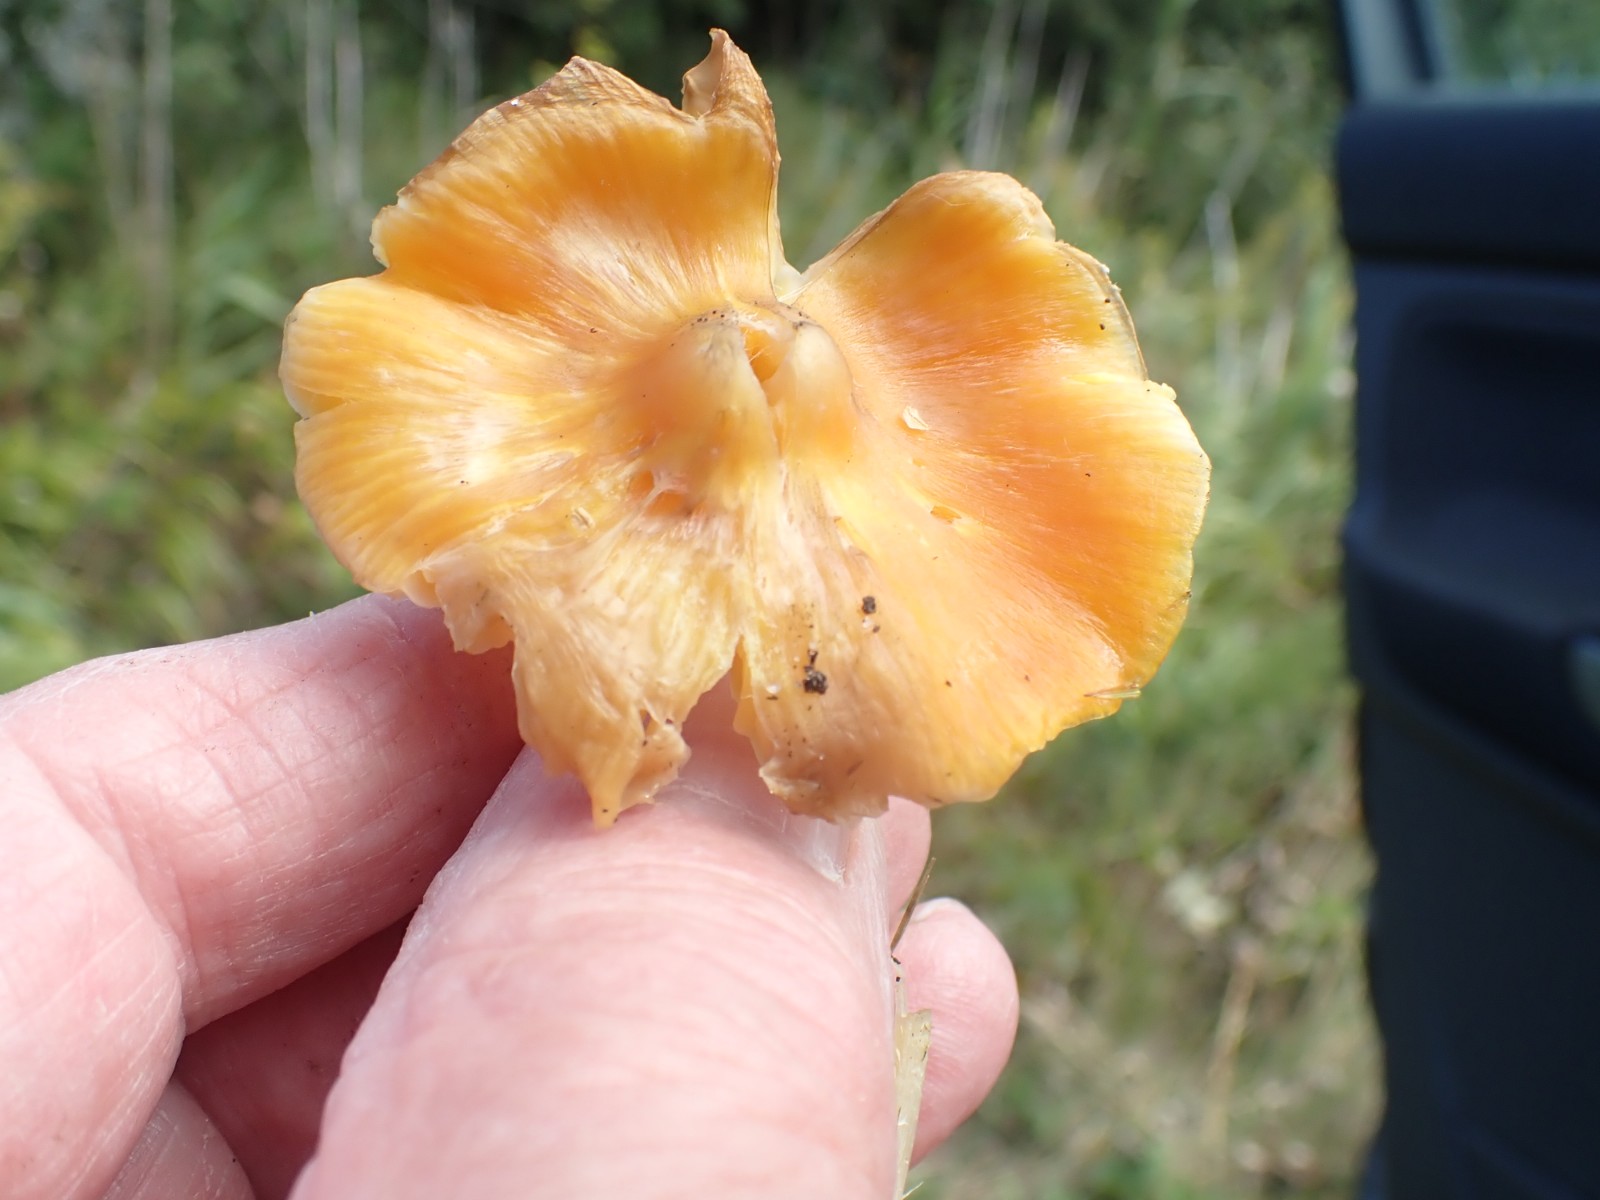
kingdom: Fungi
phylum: Basidiomycota
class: Agaricomycetes
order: Agaricales
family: Hygrophoraceae
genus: Hygrocybe
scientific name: Hygrocybe acutoconica
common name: spidspuklet vokshat
